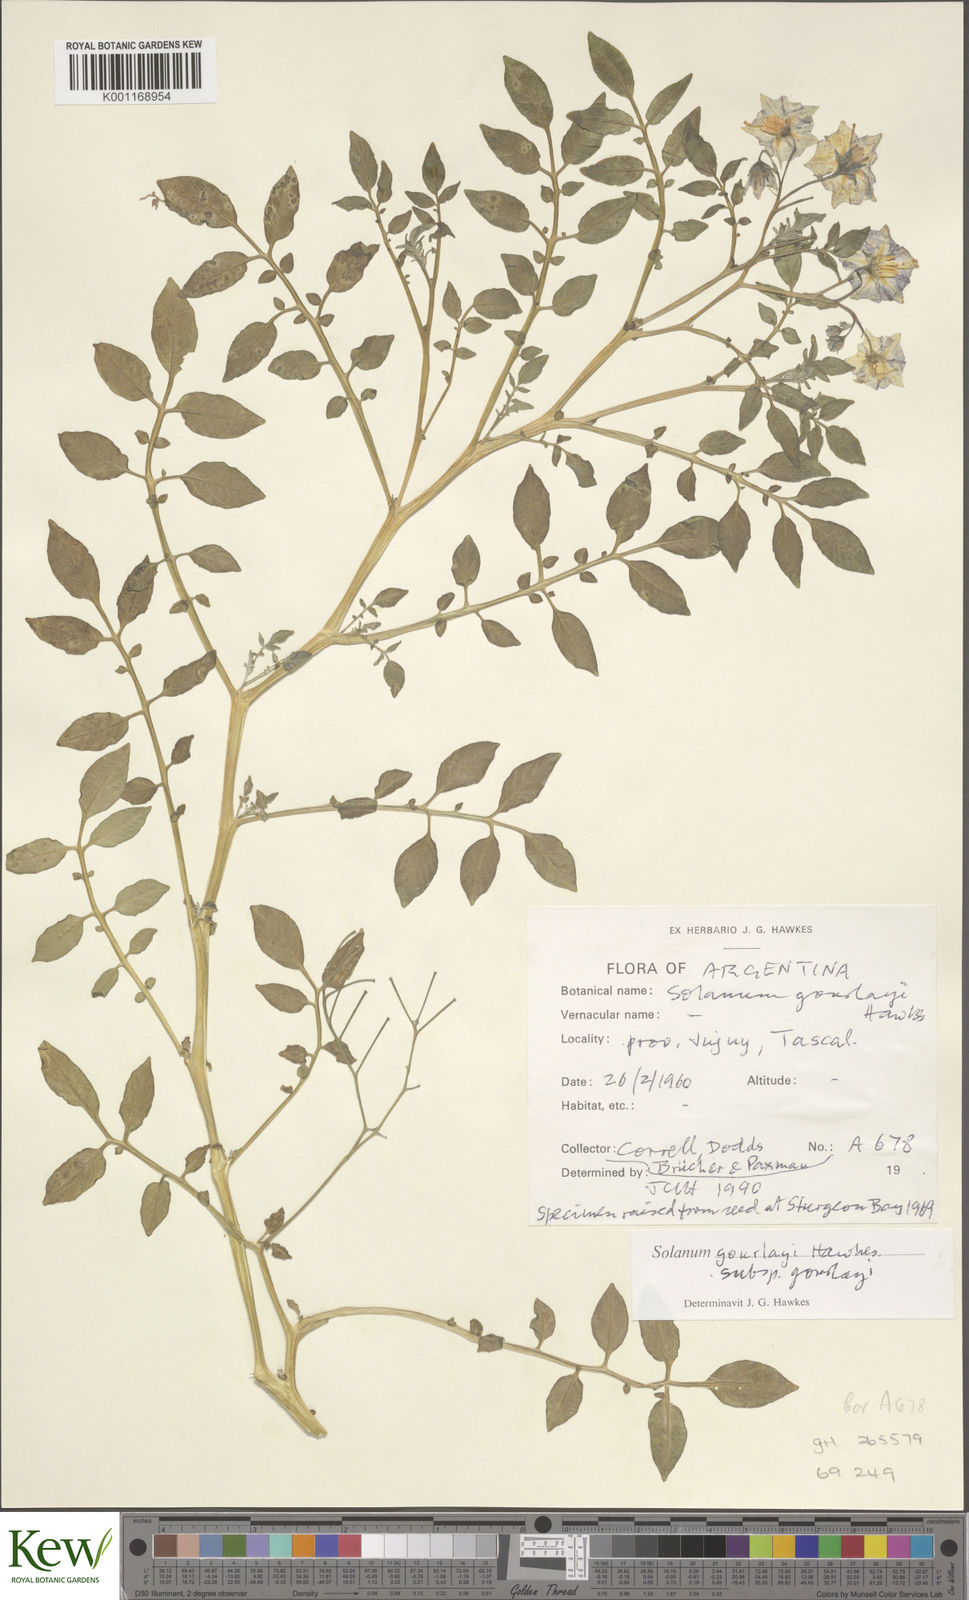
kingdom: Plantae
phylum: Tracheophyta
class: Magnoliopsida
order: Solanales
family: Solanaceae
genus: Solanum
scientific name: Solanum brevicaule
